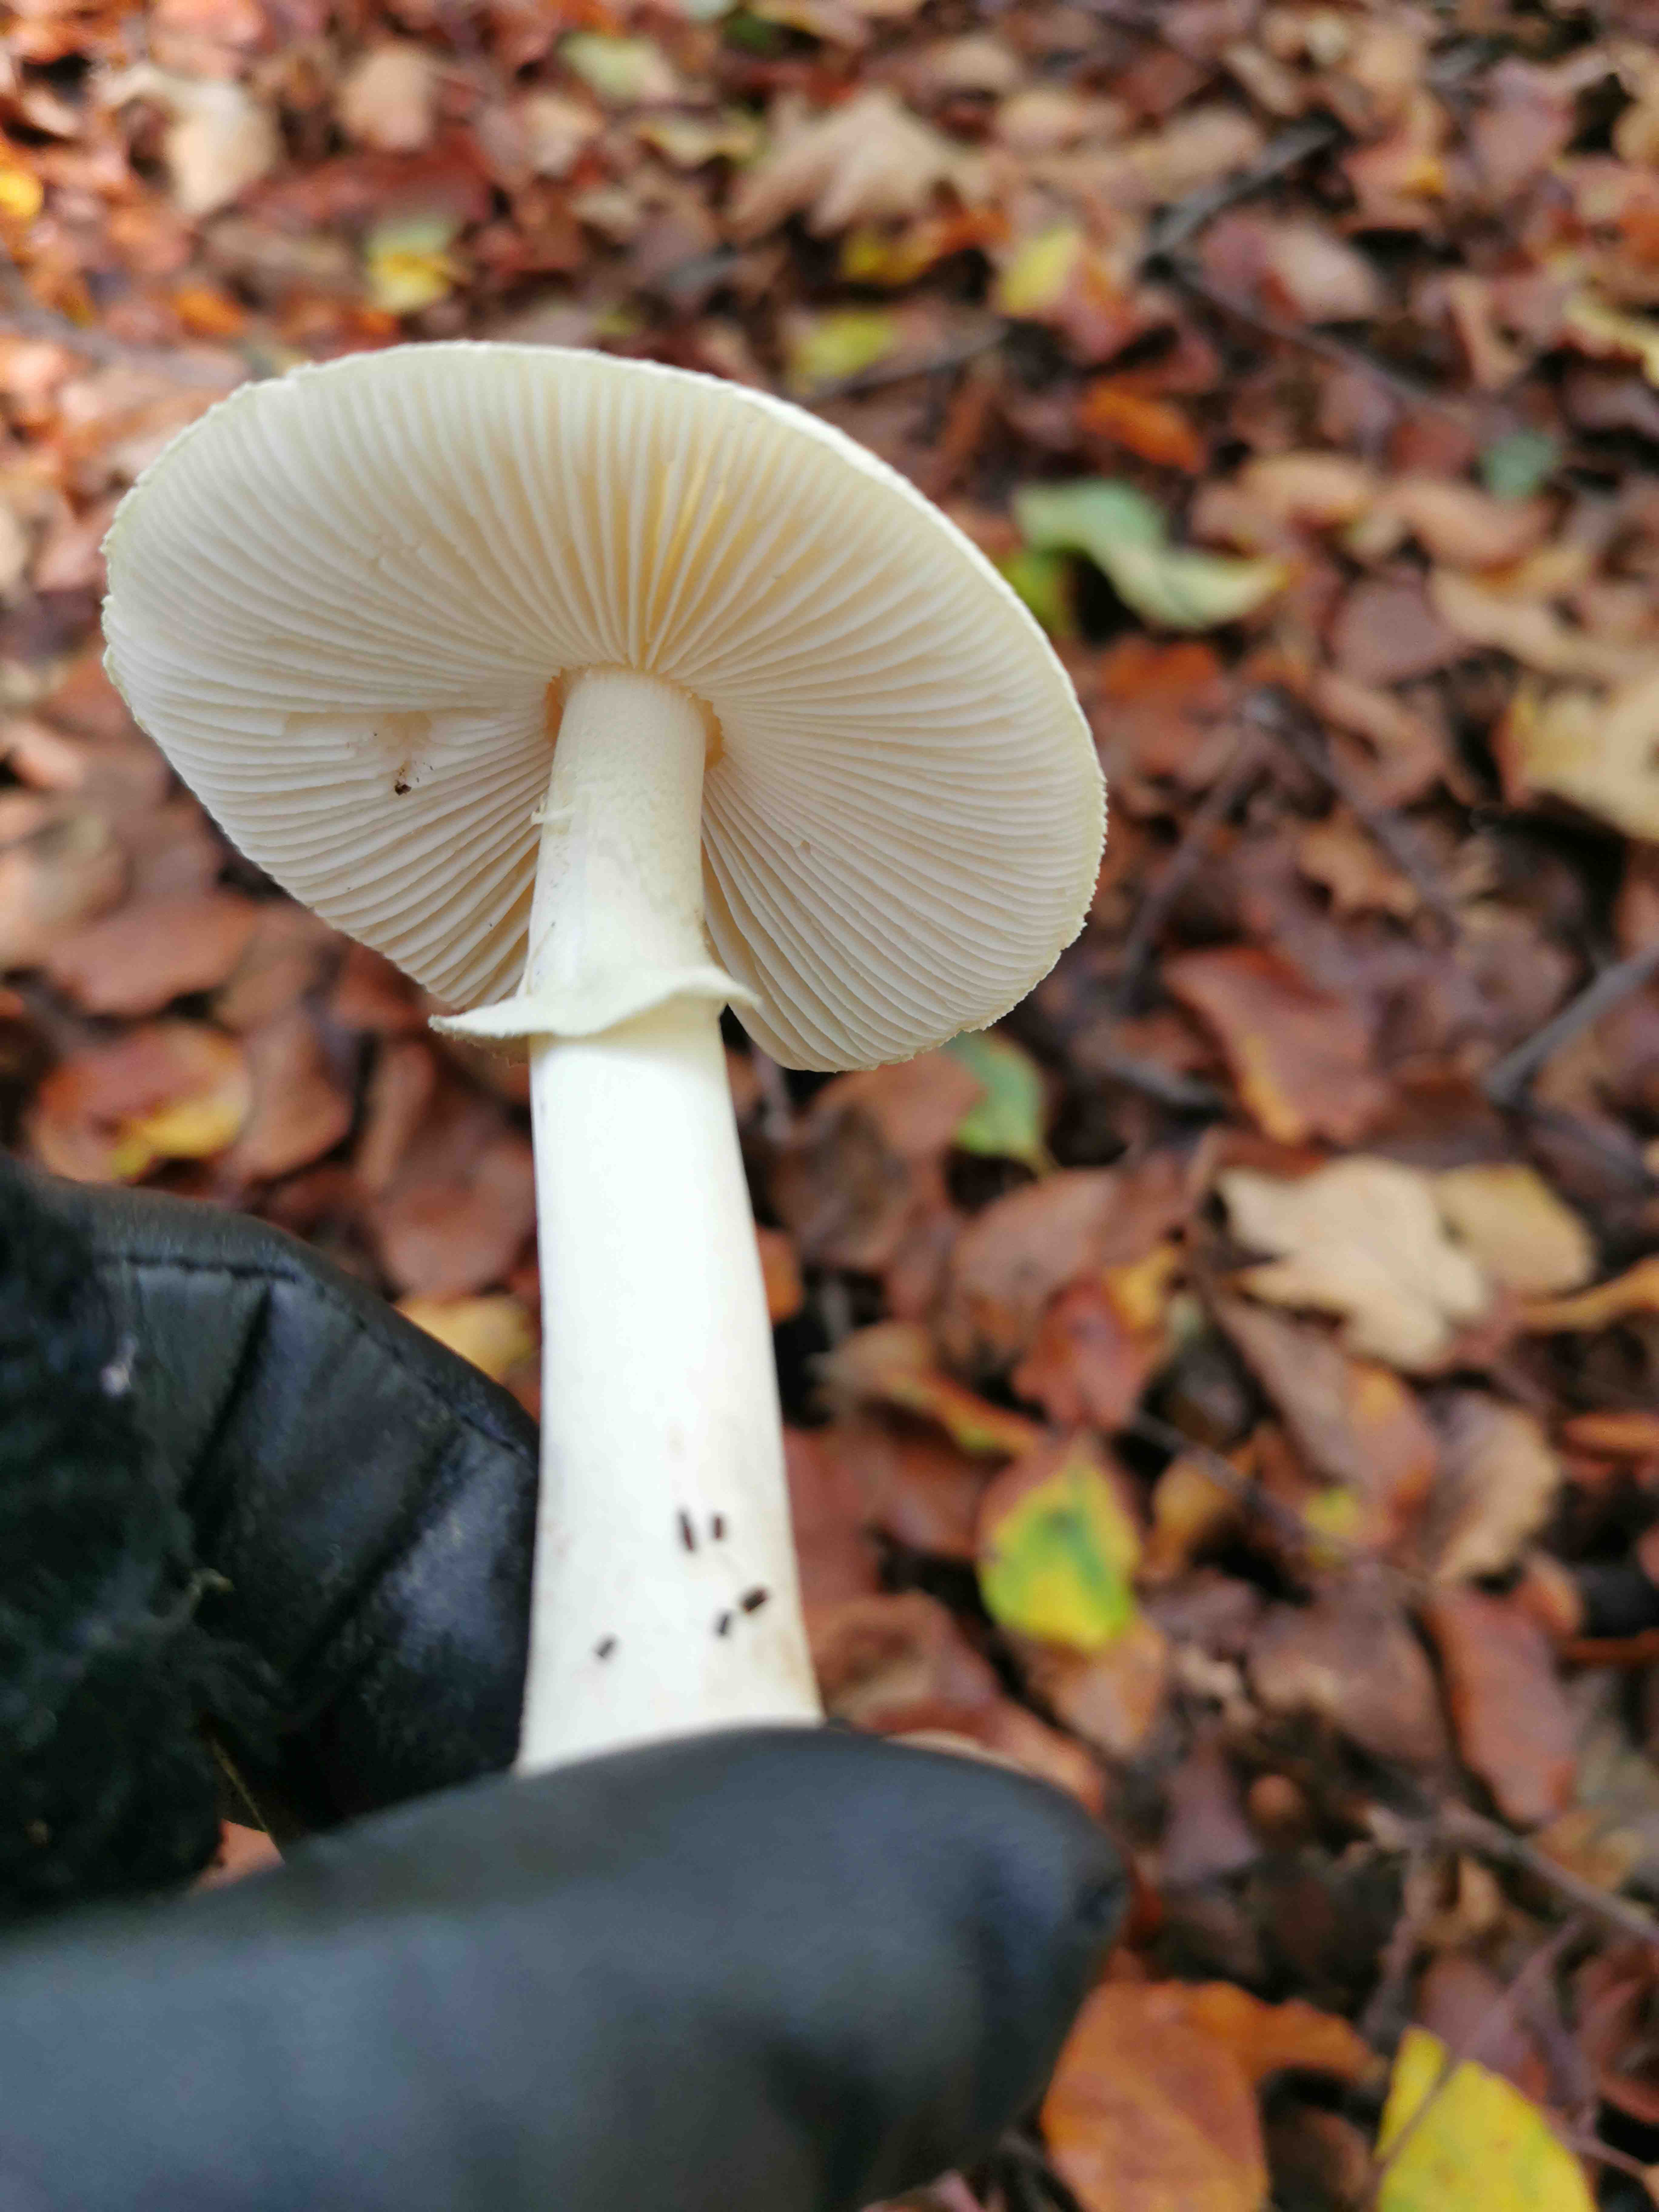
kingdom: Fungi
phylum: Basidiomycota
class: Agaricomycetes
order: Agaricales
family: Amanitaceae
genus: Amanita
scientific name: Amanita citrina
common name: kugleknoldet fluesvamp
